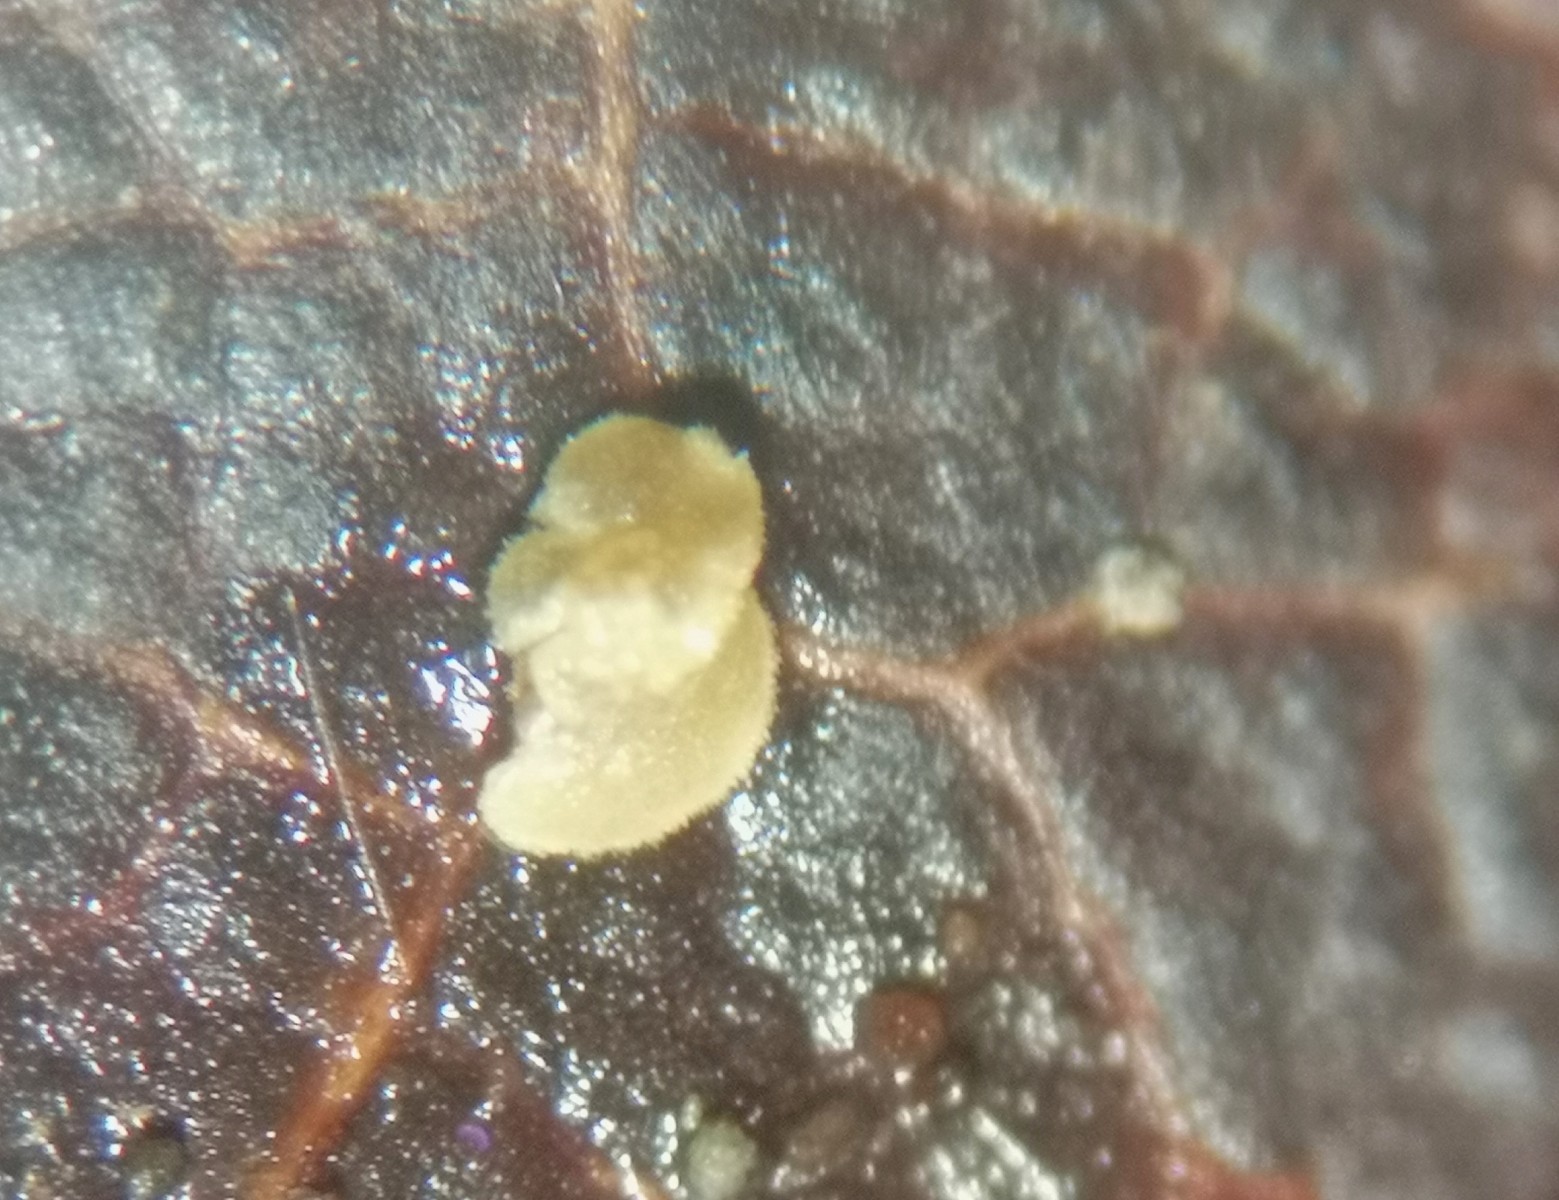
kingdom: Fungi
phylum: Ascomycota
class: Leotiomycetes
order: Helotiales
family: Pezizellaceae
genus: Phialina
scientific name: Phialina
